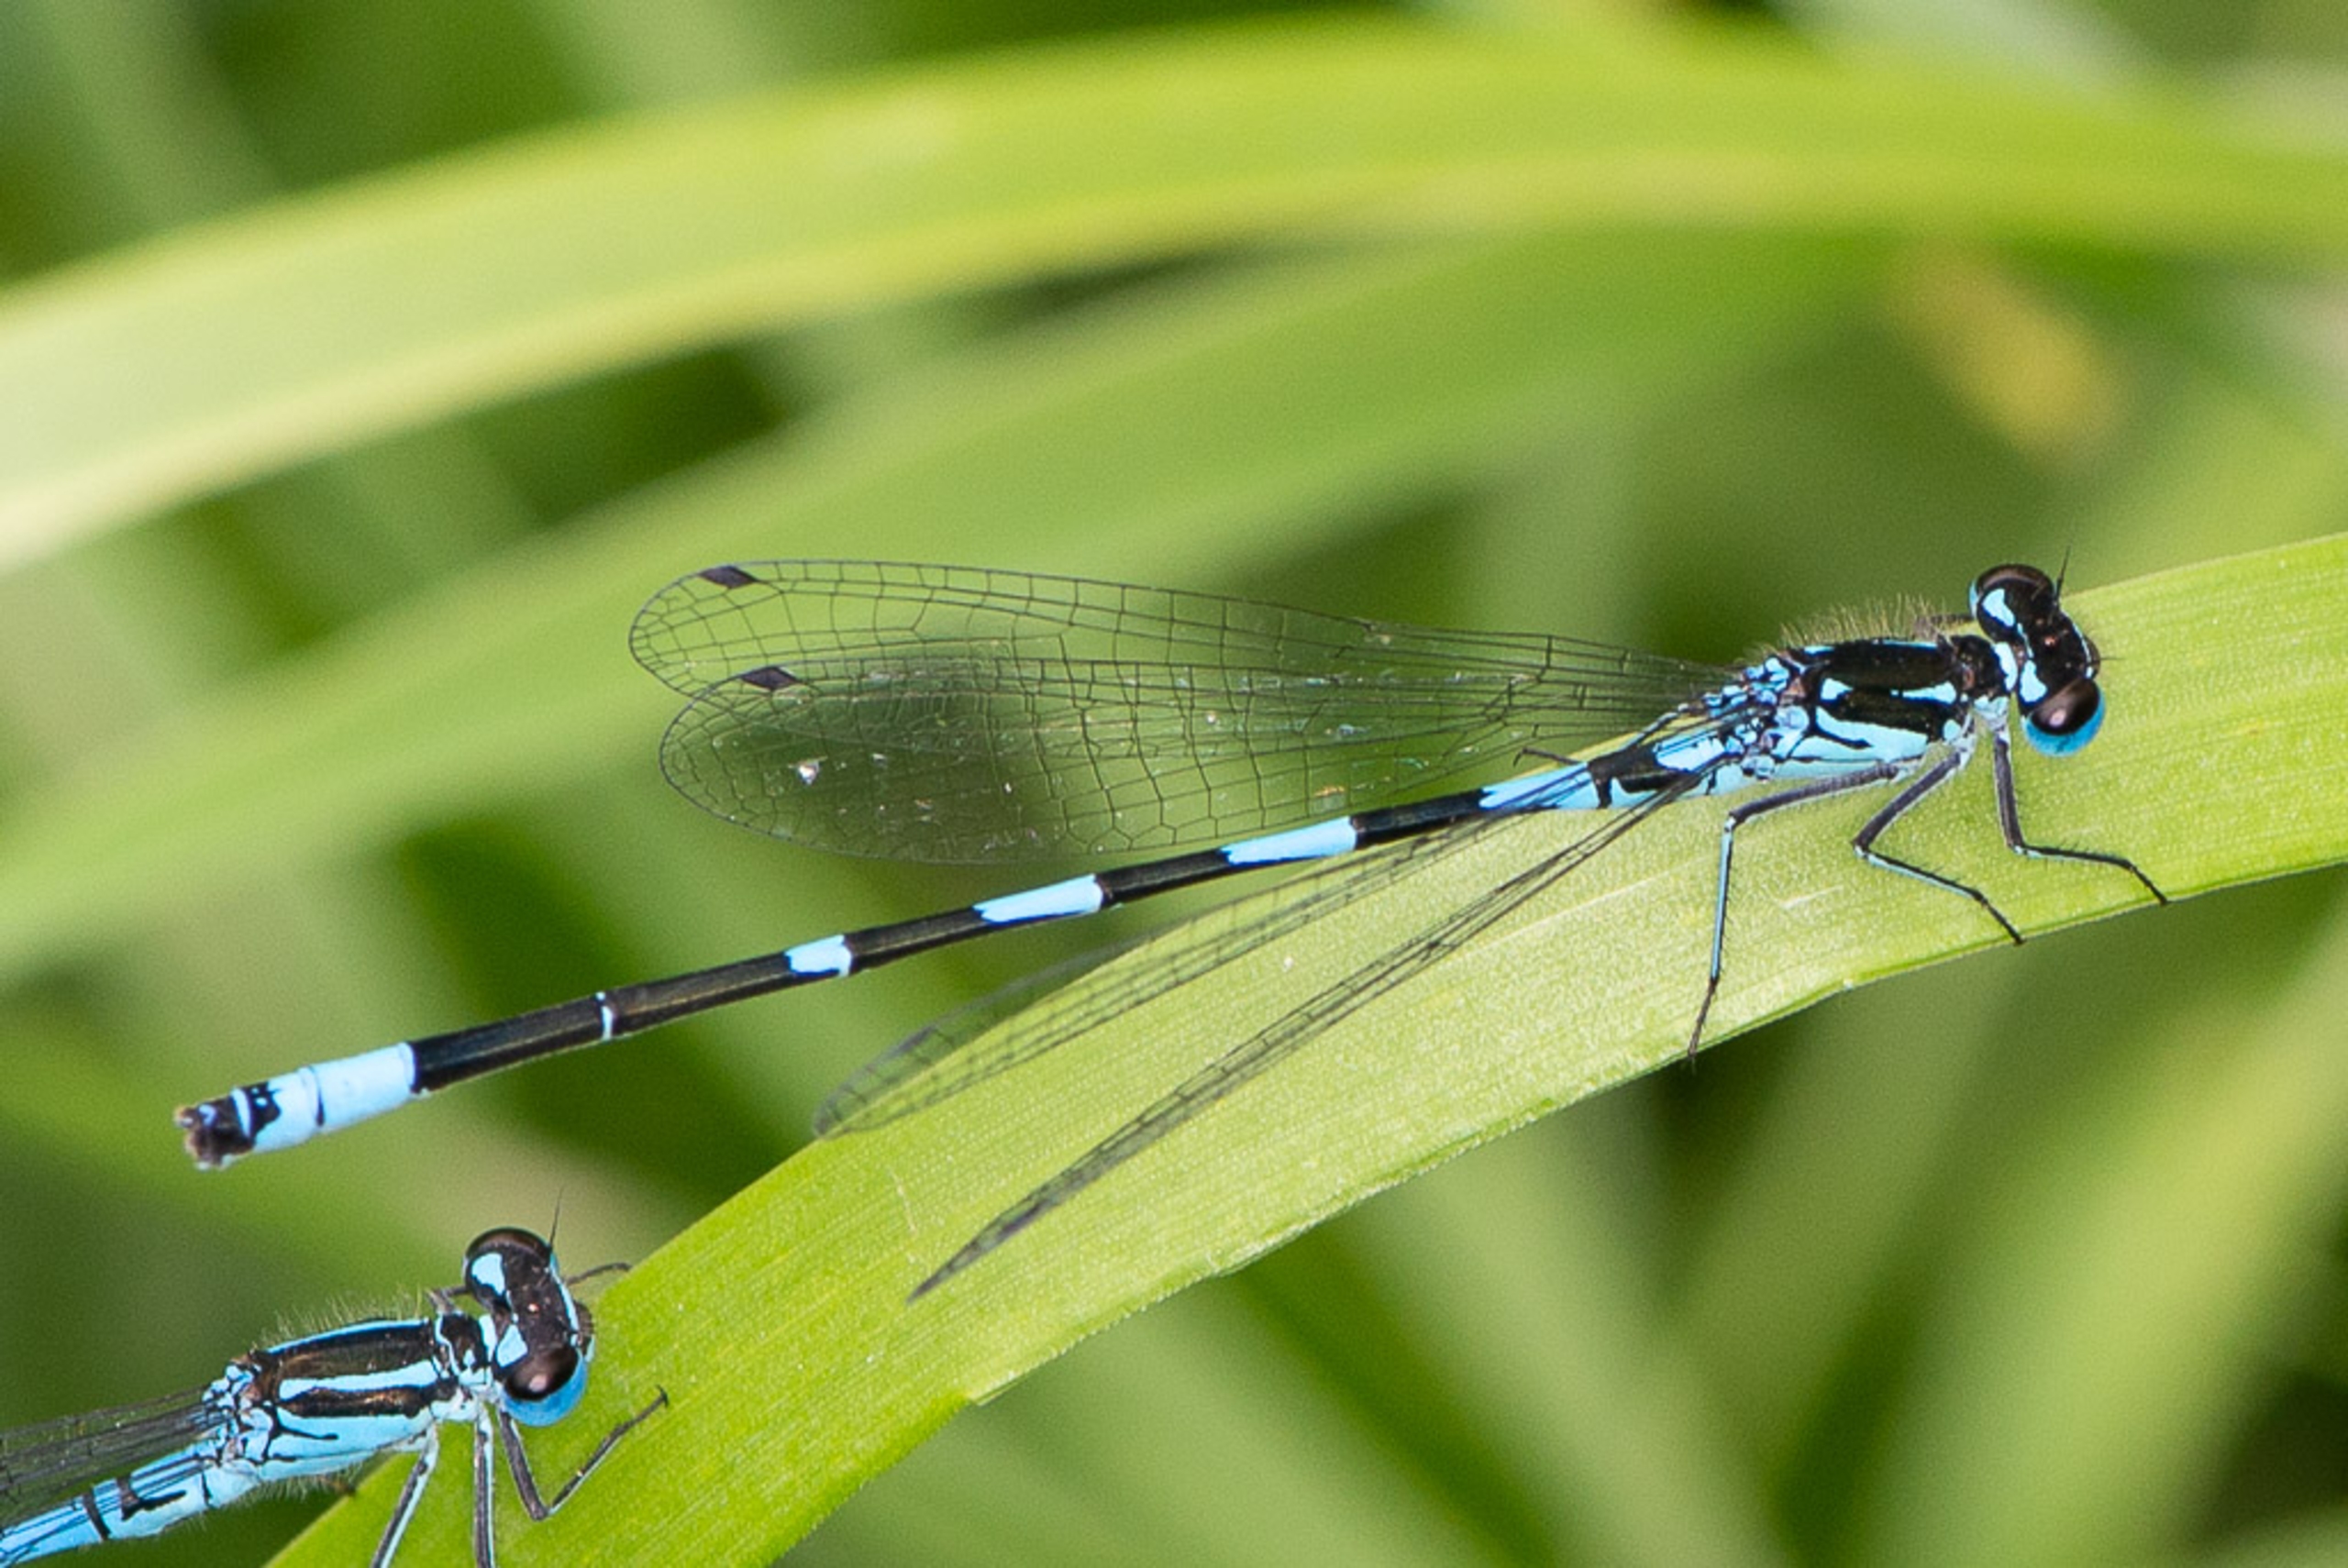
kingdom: Animalia
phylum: Arthropoda
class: Insecta
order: Odonata
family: Coenagrionidae
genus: Coenagrion
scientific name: Coenagrion pulchellum
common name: Flagermus-vandnymfe
